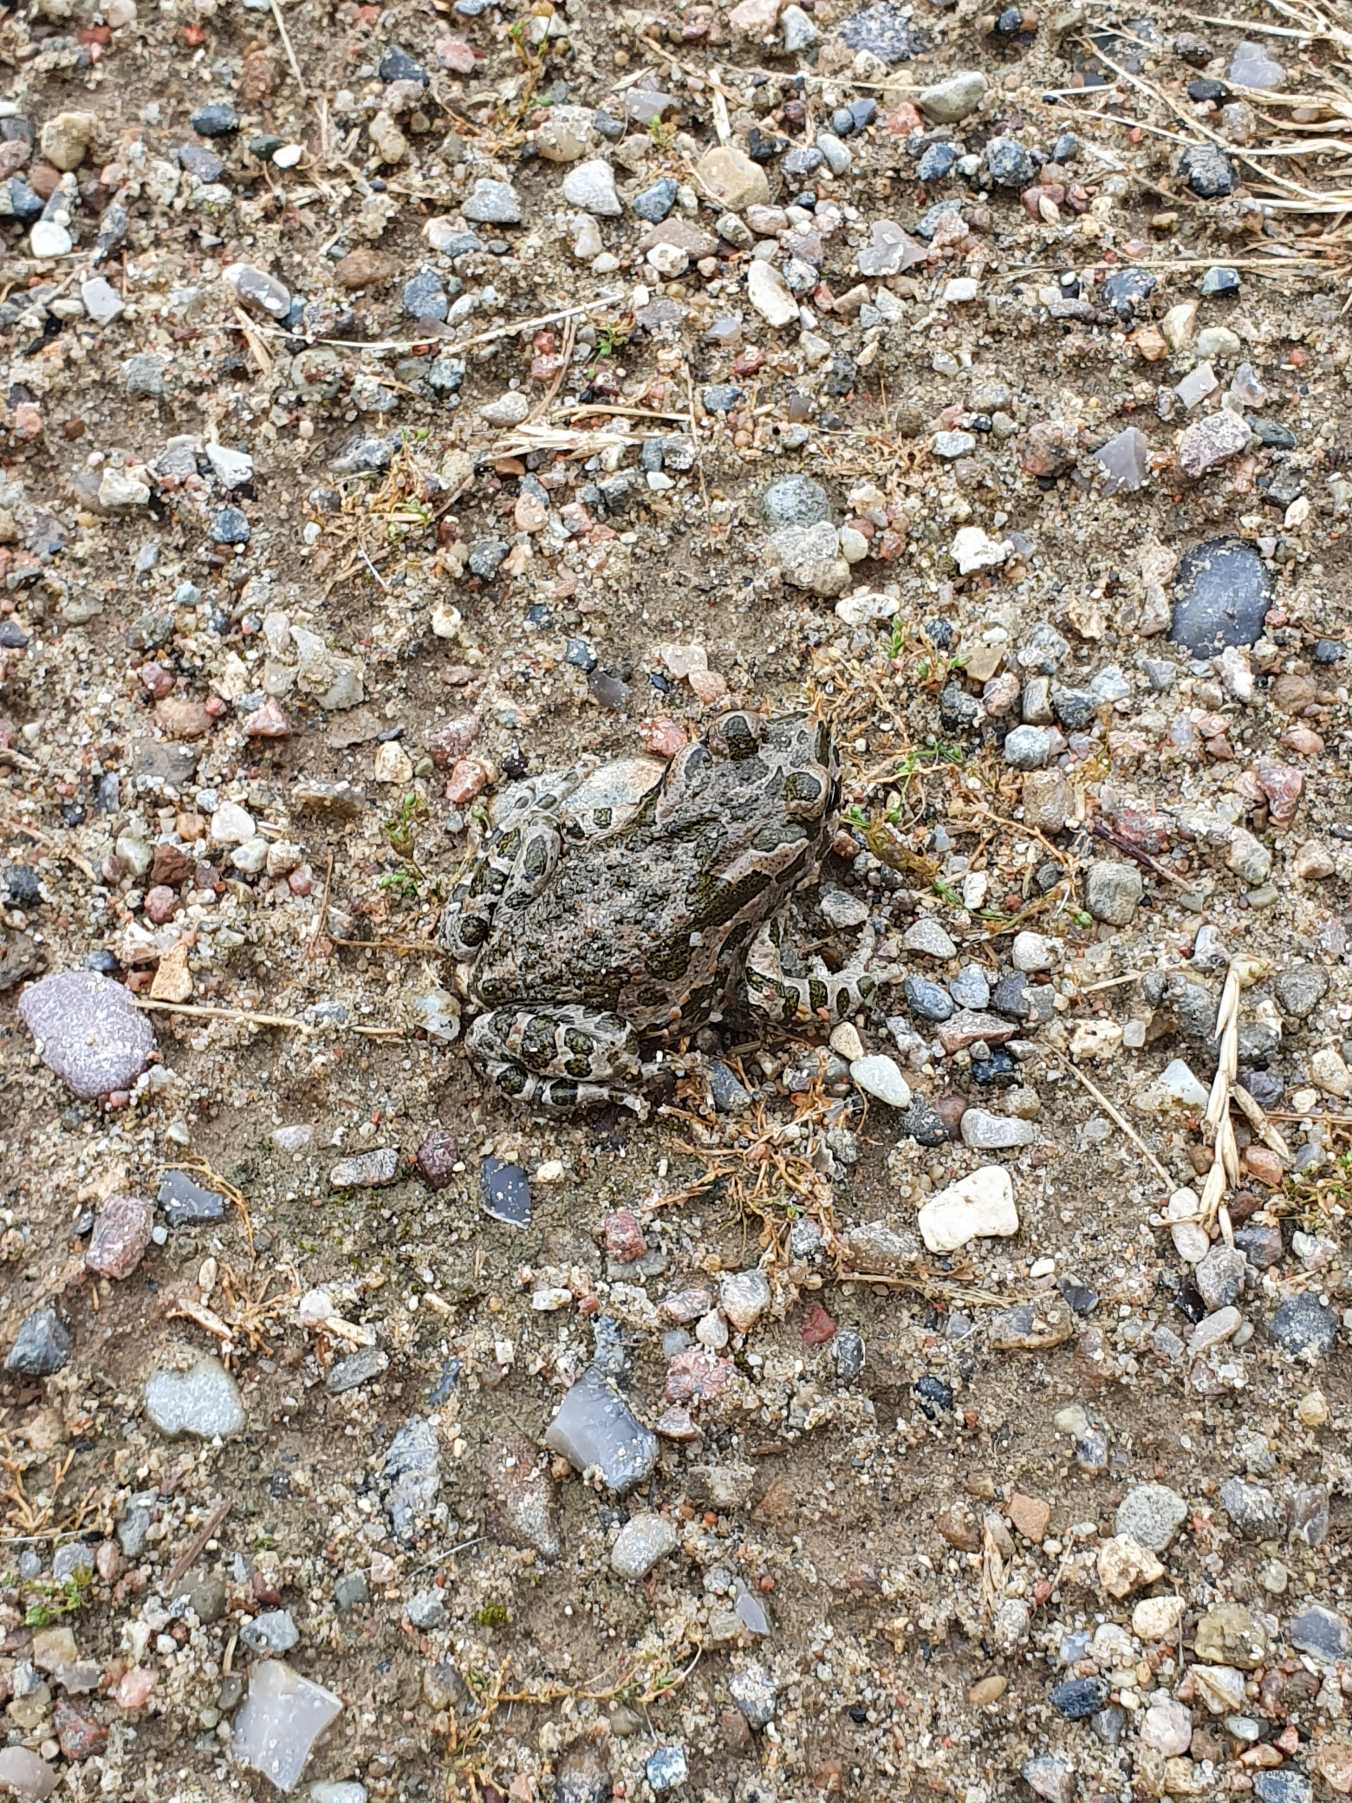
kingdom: Animalia
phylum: Chordata
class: Amphibia
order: Anura
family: Bufonidae
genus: Bufotes
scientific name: Bufotes viridis
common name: Grønbroget tudse
